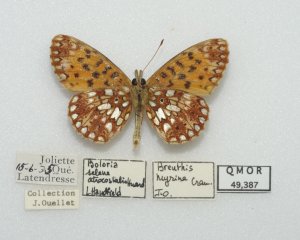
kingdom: Animalia
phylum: Arthropoda
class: Insecta
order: Lepidoptera
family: Nymphalidae
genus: Boloria
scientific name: Boloria selene
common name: Silver-bordered Fritillary
